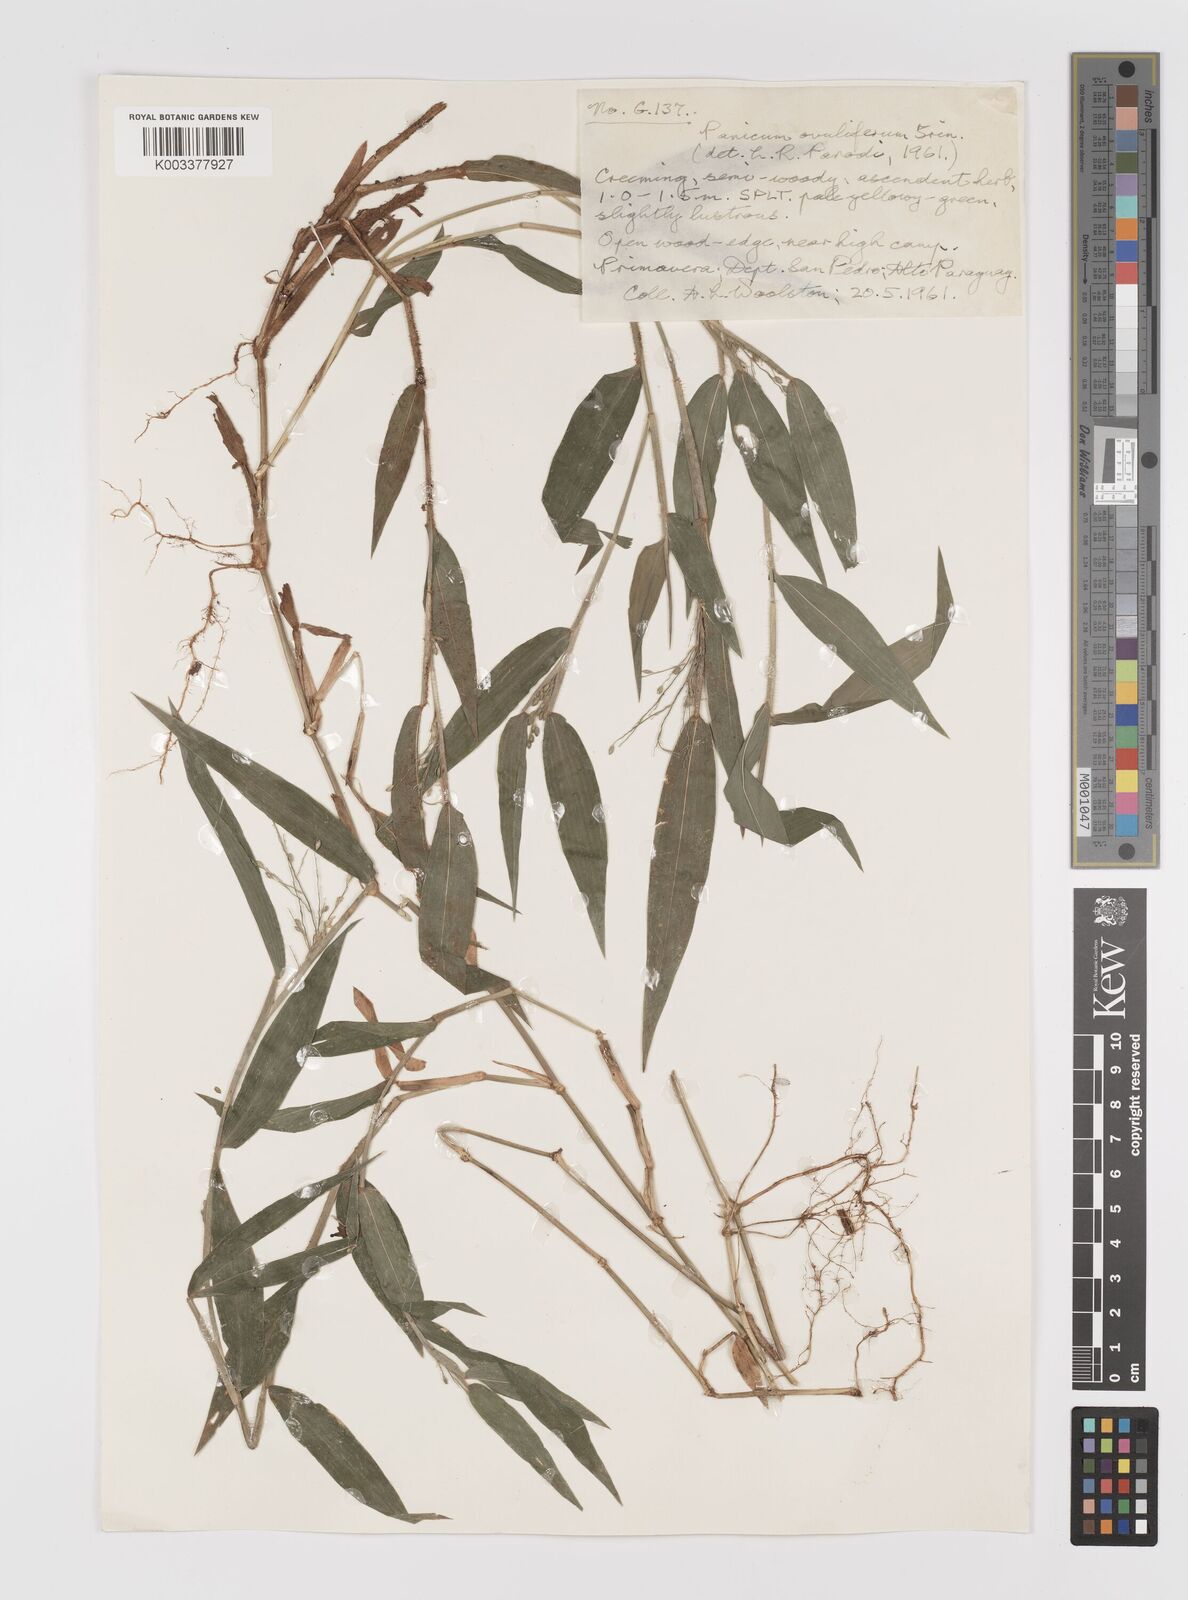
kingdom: Plantae
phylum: Tracheophyta
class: Liliopsida
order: Poales
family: Poaceae
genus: Parodiophyllochloa
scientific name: Parodiophyllochloa ovulifera
